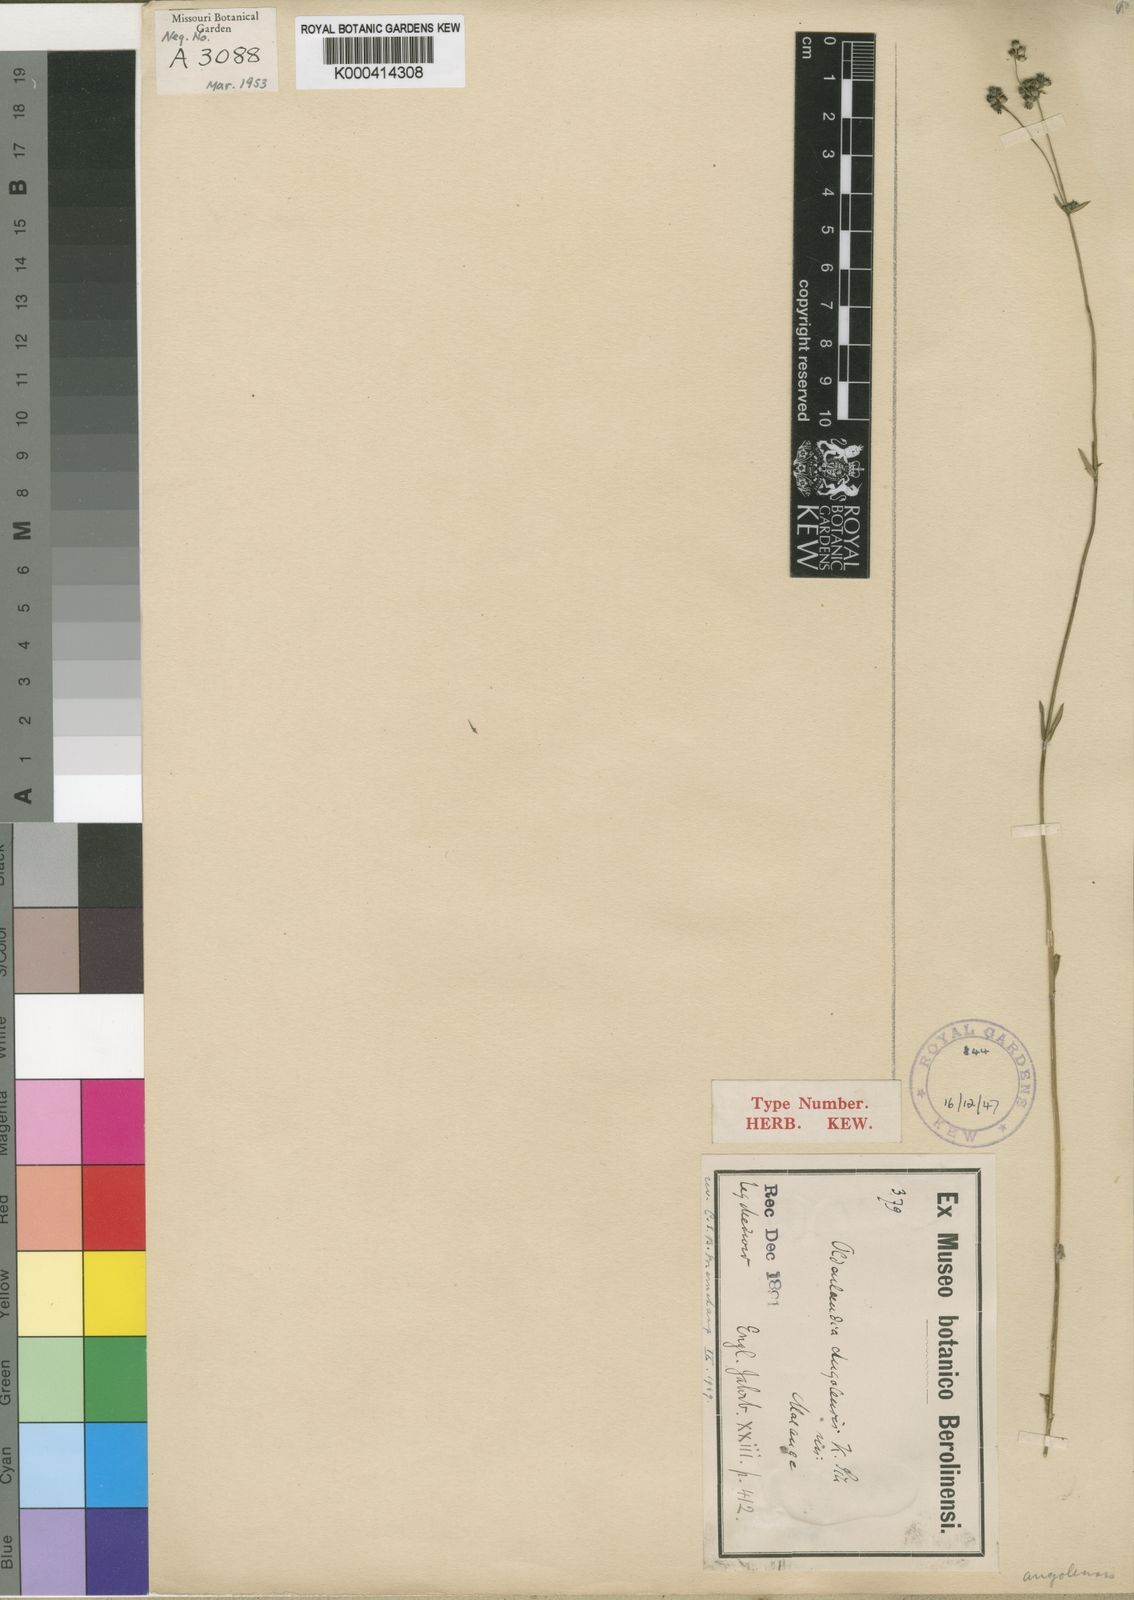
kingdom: Plantae
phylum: Tracheophyta
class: Magnoliopsida
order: Gentianales
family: Rubiaceae
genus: Edrastima
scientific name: Edrastima angolensis
